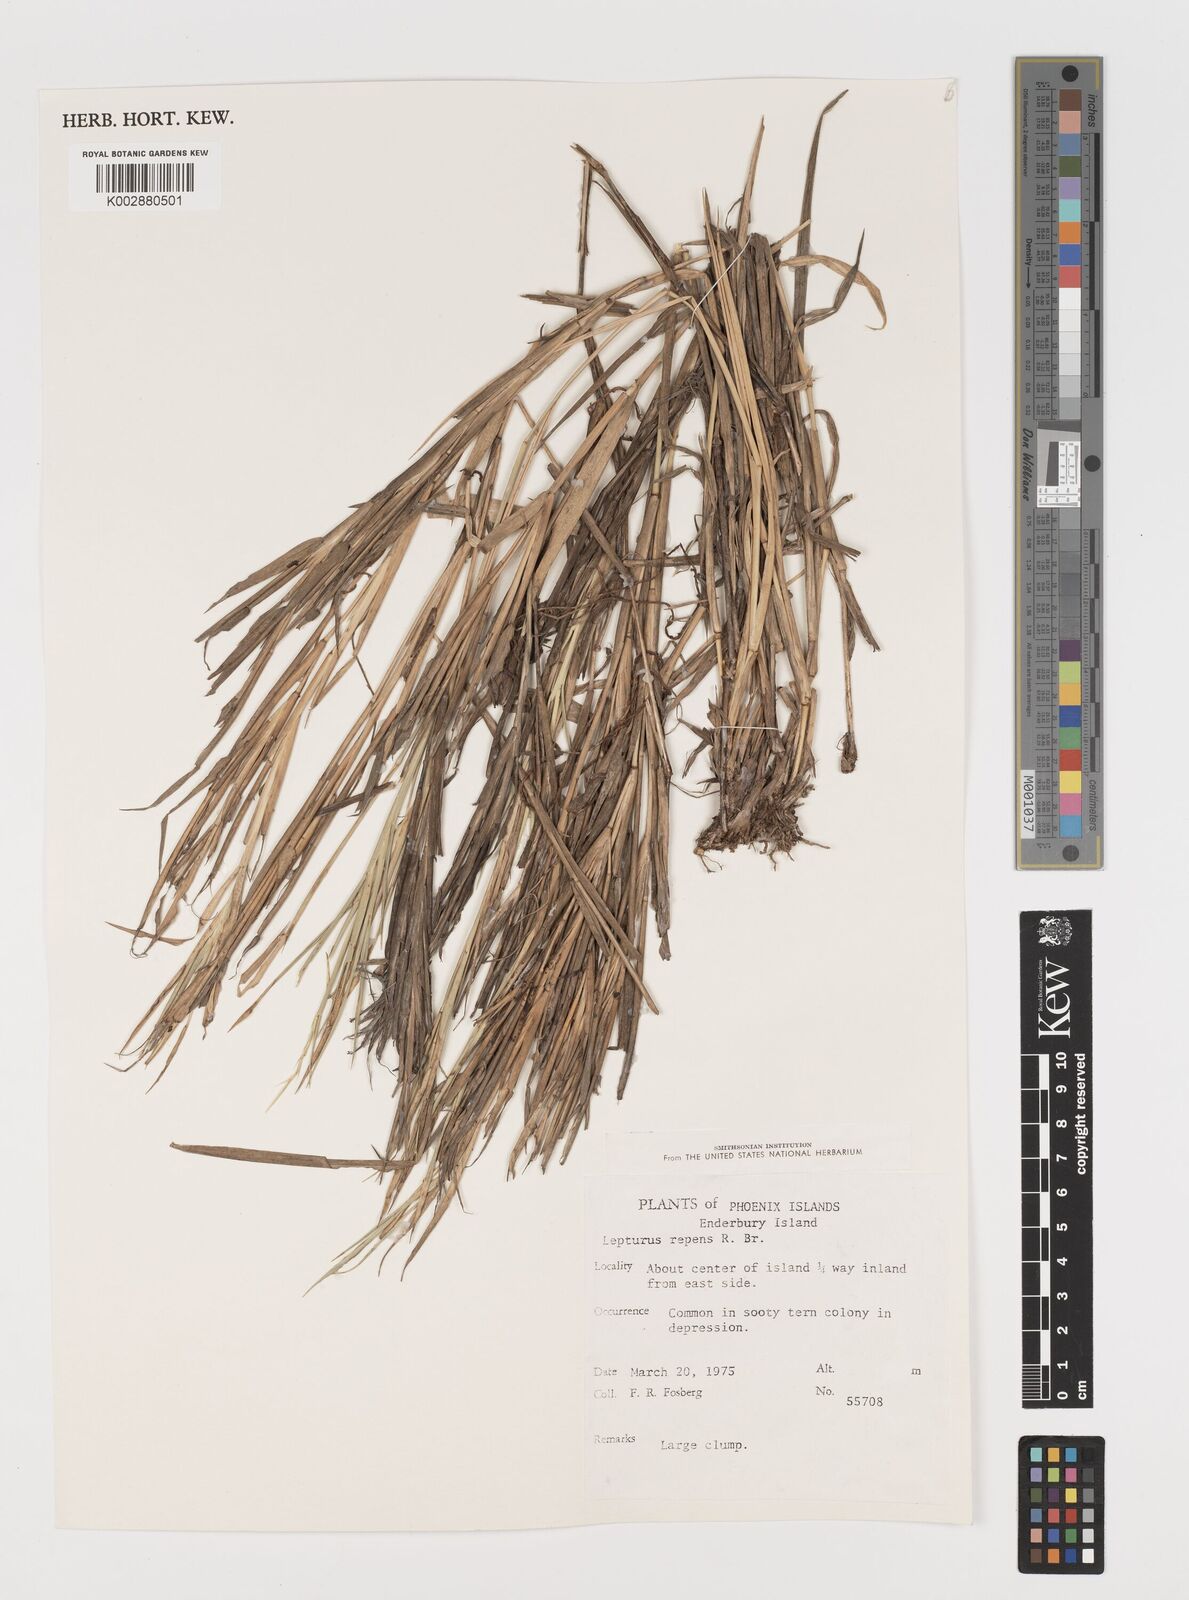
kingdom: Plantae
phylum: Tracheophyta
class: Liliopsida
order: Poales
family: Poaceae
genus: Lepturus
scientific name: Lepturus repens
